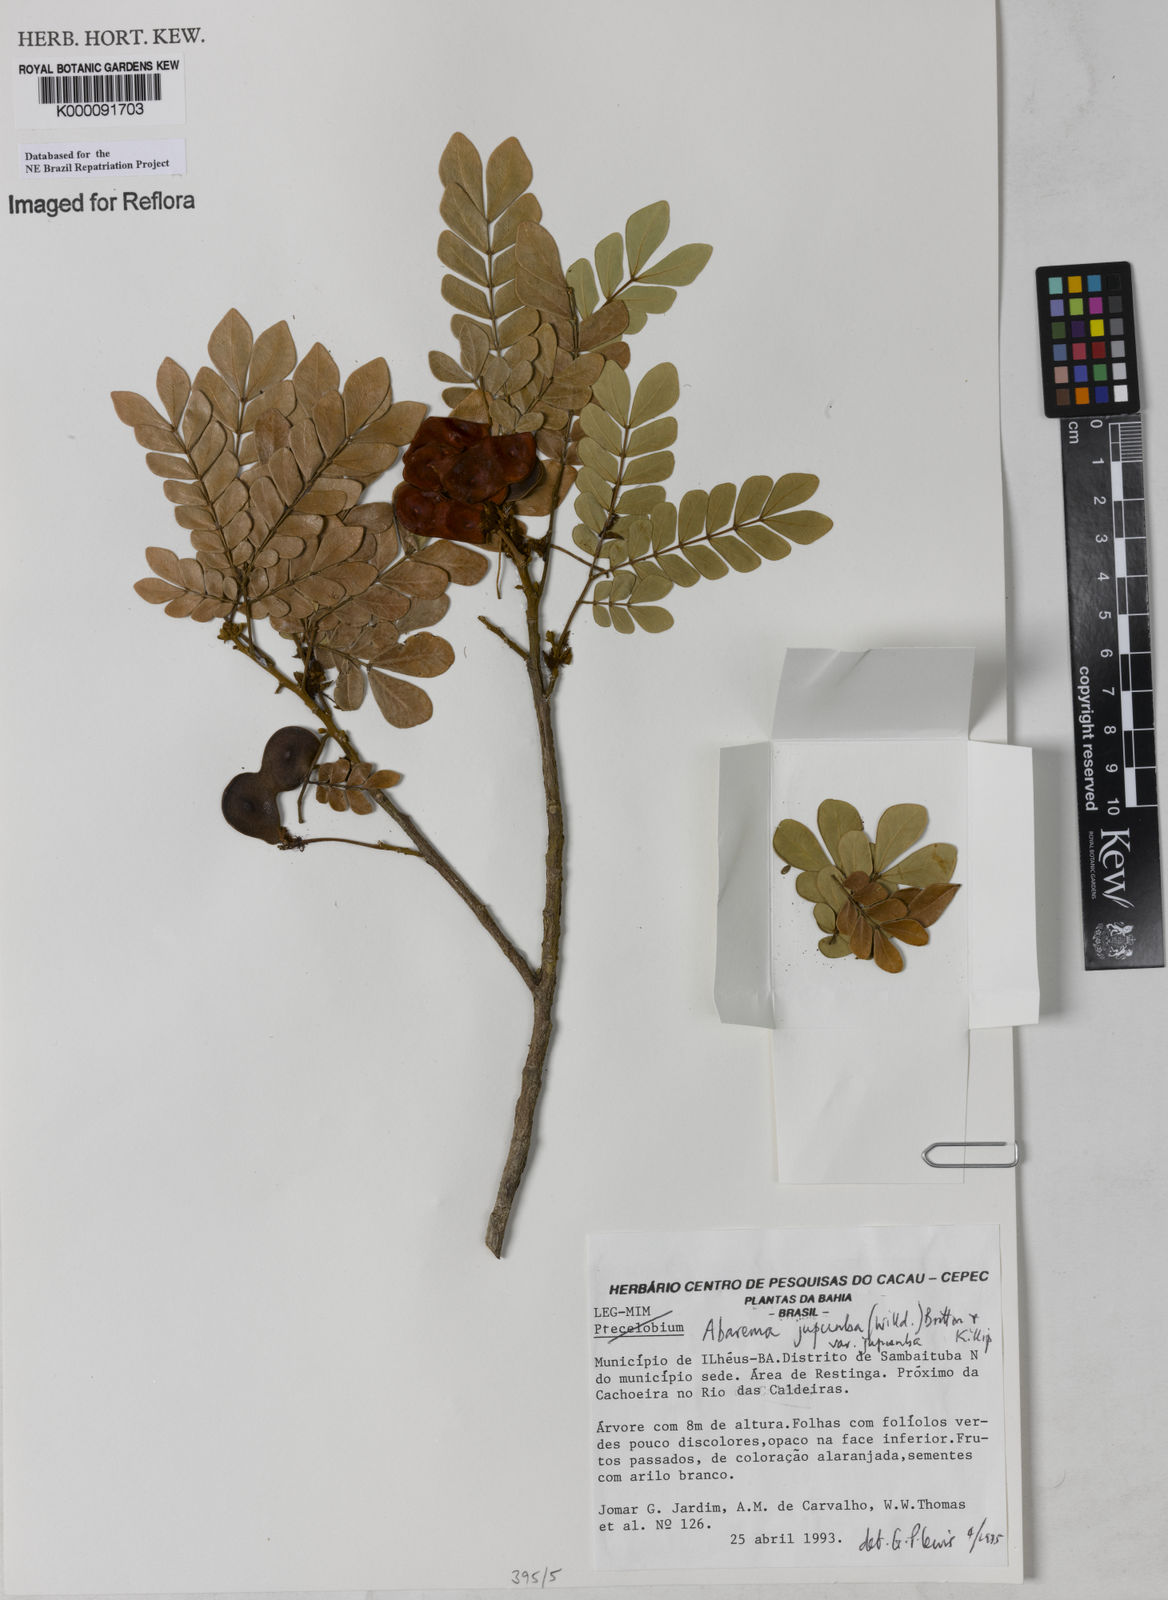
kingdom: Plantae
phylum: Tracheophyta
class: Magnoliopsida
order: Fabales
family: Fabaceae
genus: Jupunba
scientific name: Jupunba trapezifolia
